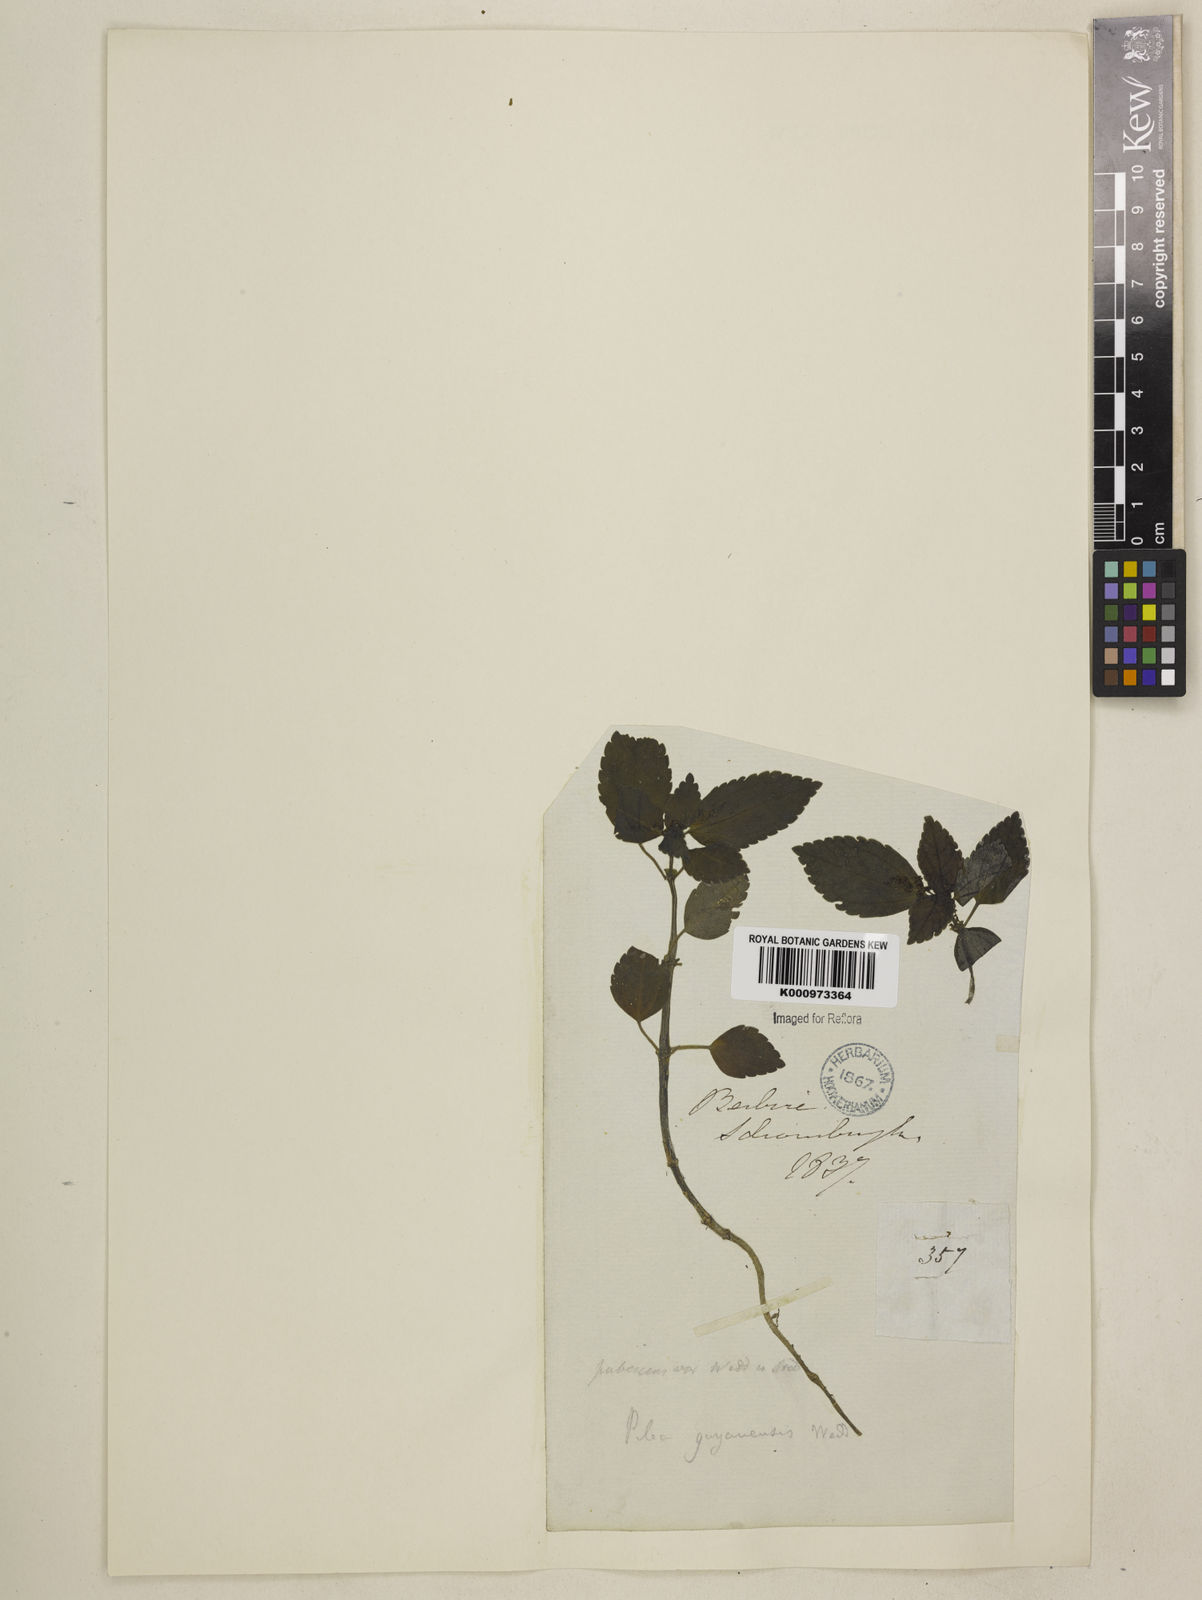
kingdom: Plantae
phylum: Tracheophyta
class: Magnoliopsida
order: Rosales
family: Urticaceae
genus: Pilea
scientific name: Pilea
